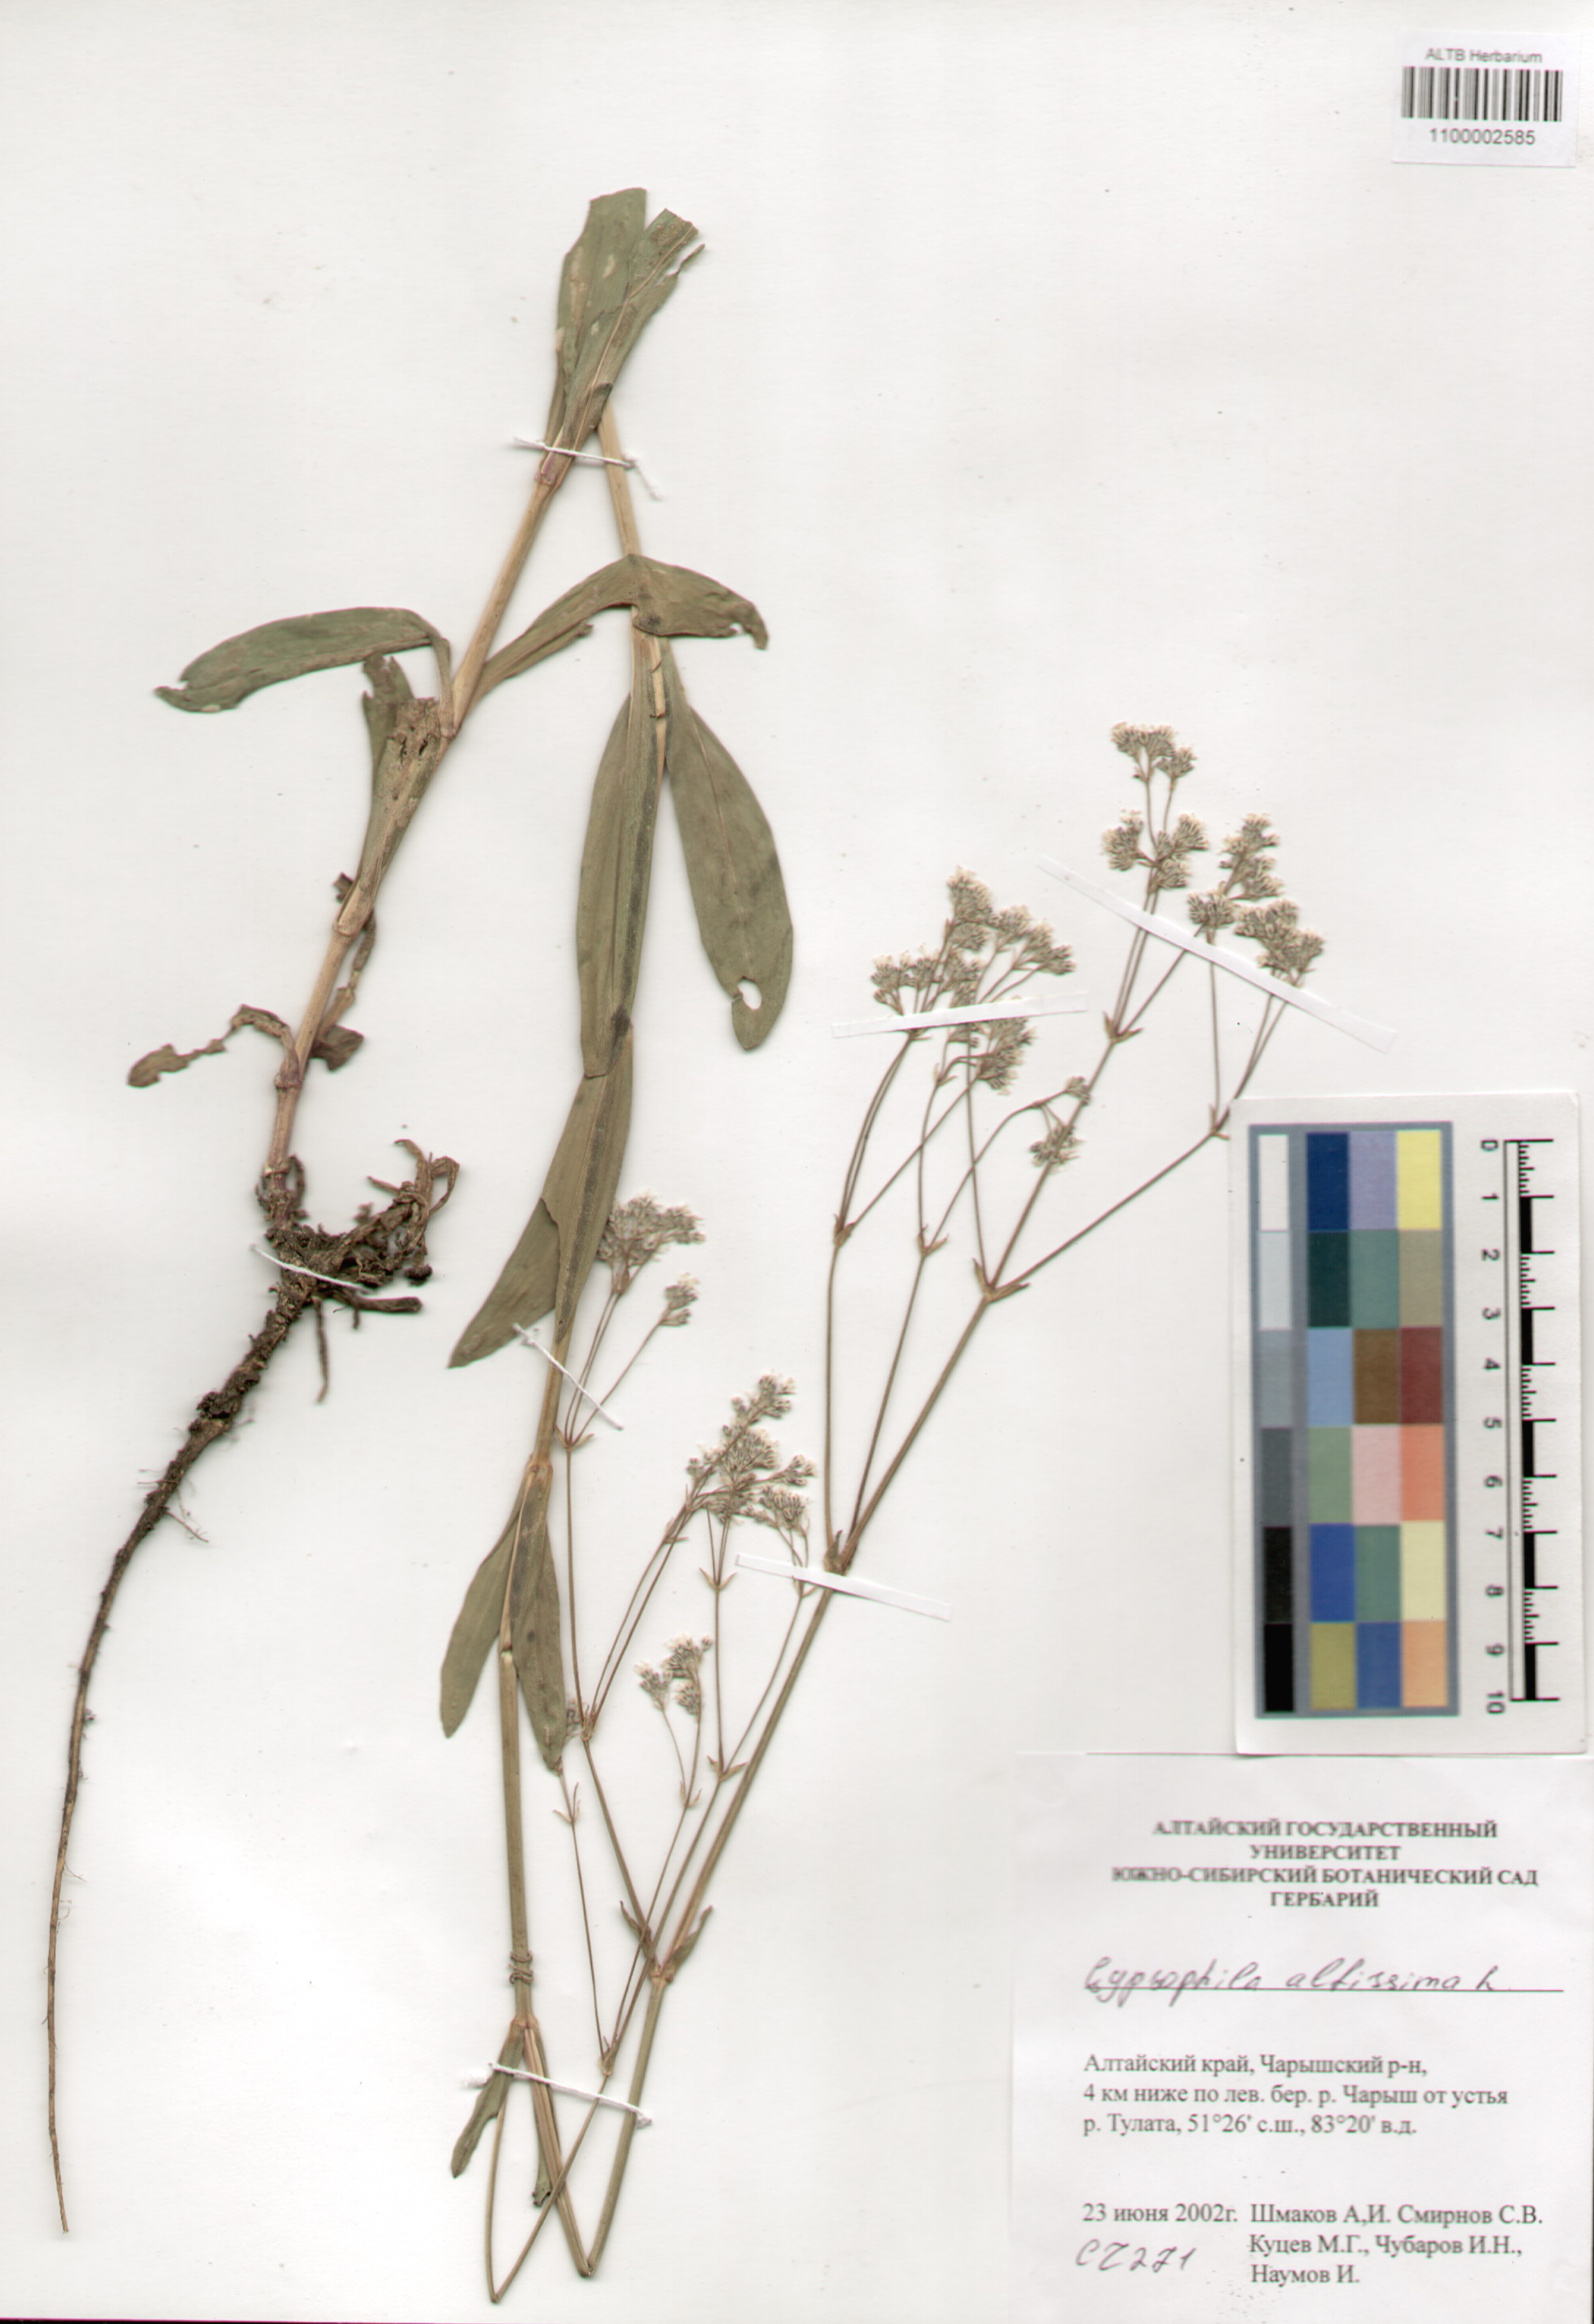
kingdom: Plantae
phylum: Tracheophyta
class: Magnoliopsida
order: Caryophyllales
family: Caryophyllaceae
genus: Gypsophila
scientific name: Gypsophila altissima
